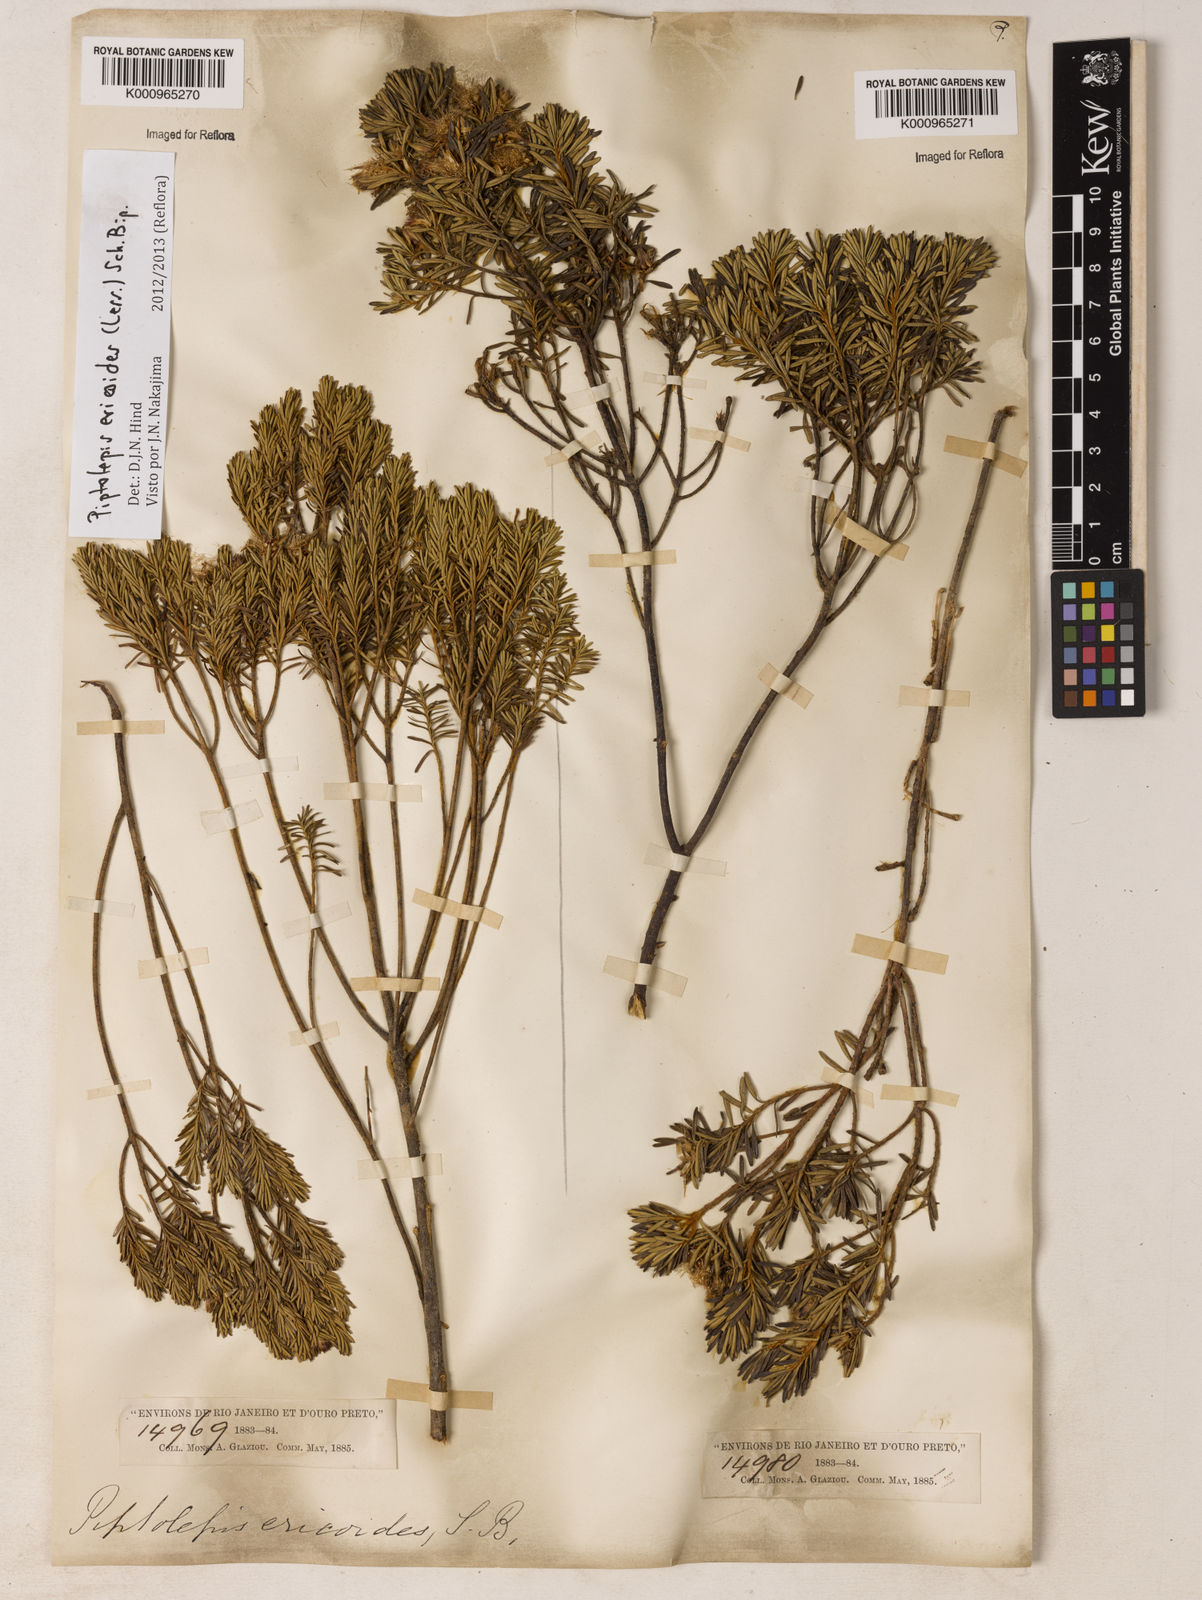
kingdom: Plantae
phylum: Tracheophyta
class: Magnoliopsida
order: Asterales
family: Asteraceae
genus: Piptolepis
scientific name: Piptolepis ericoides
